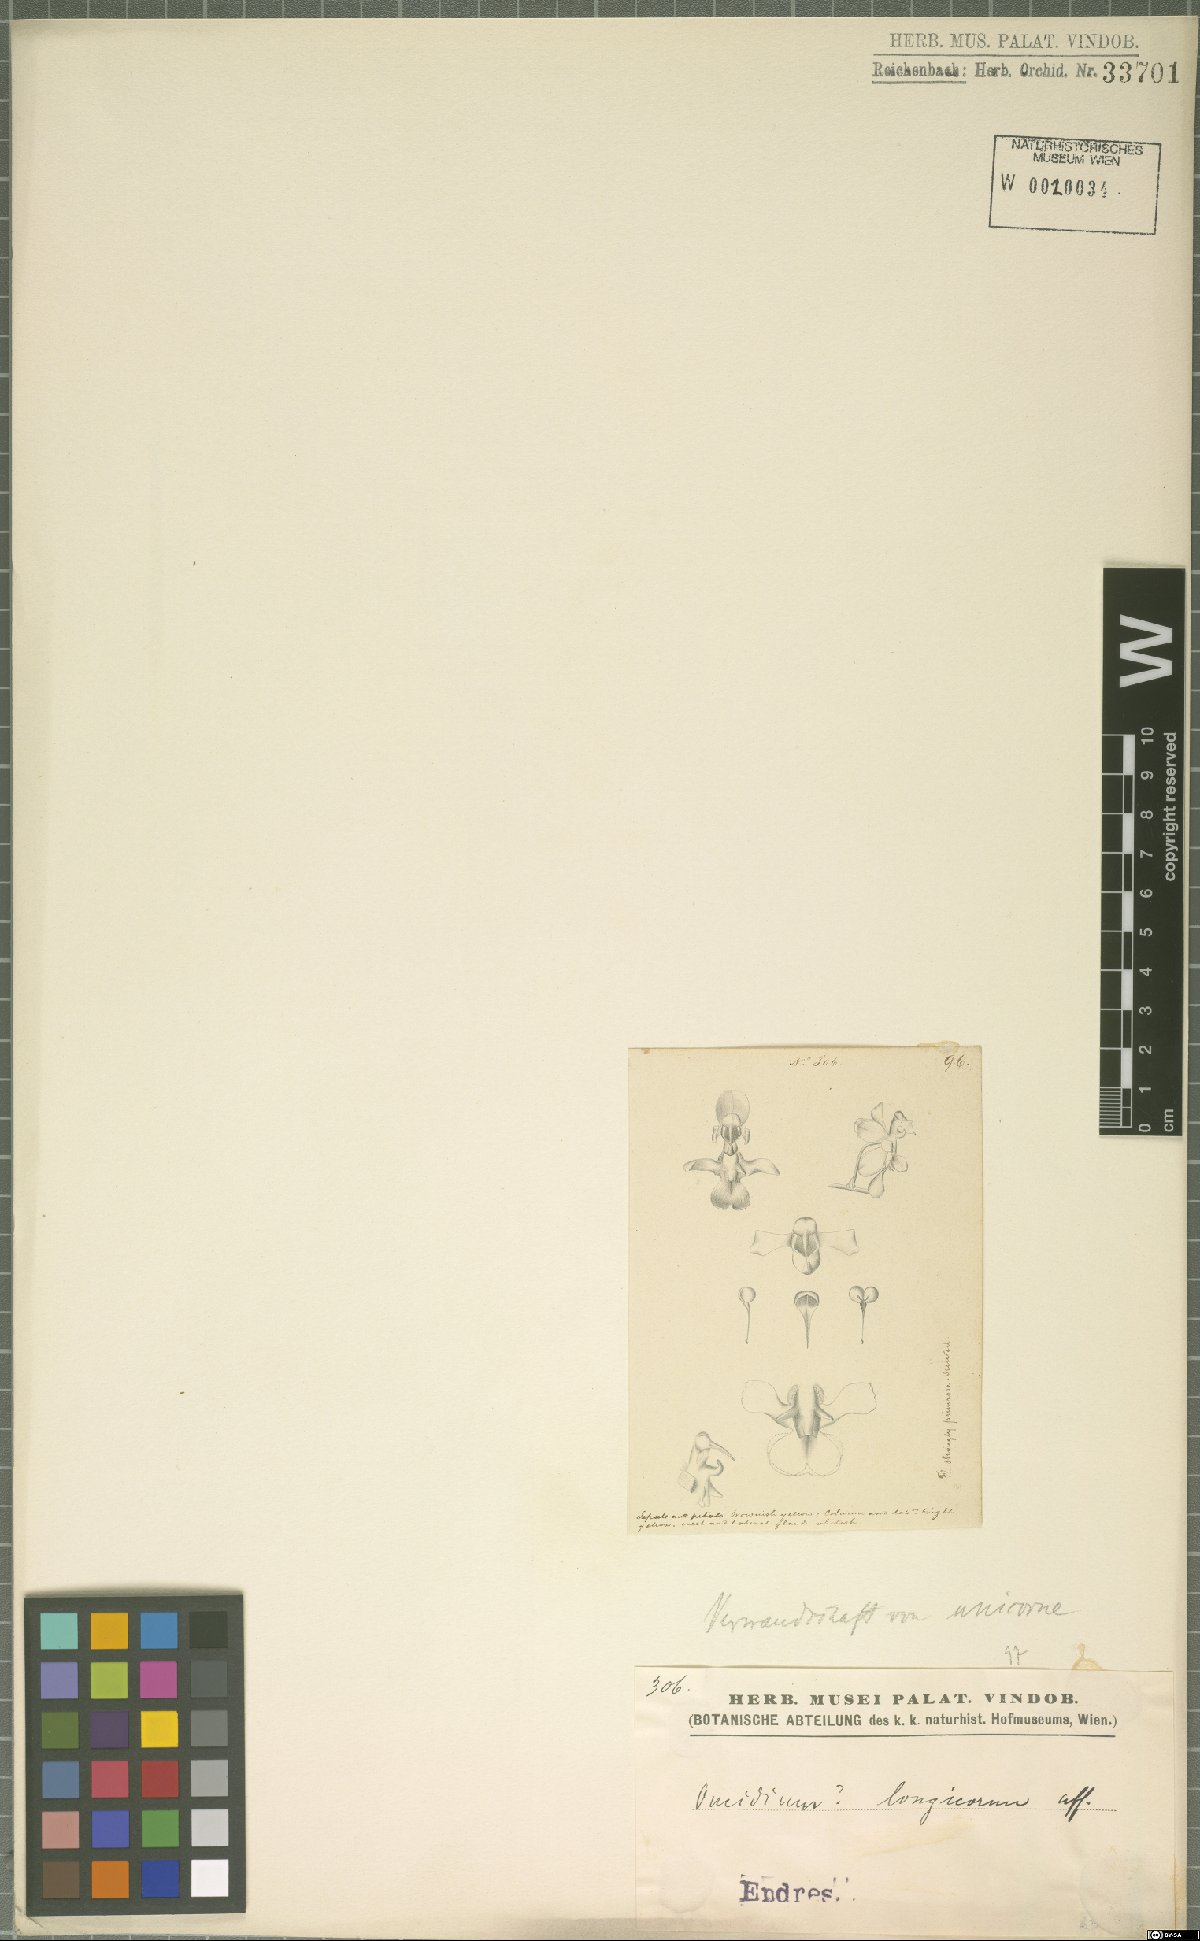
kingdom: Plantae
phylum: Tracheophyta
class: Liliopsida
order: Asparagales
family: Orchidaceae
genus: Oncidium
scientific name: Oncidium
